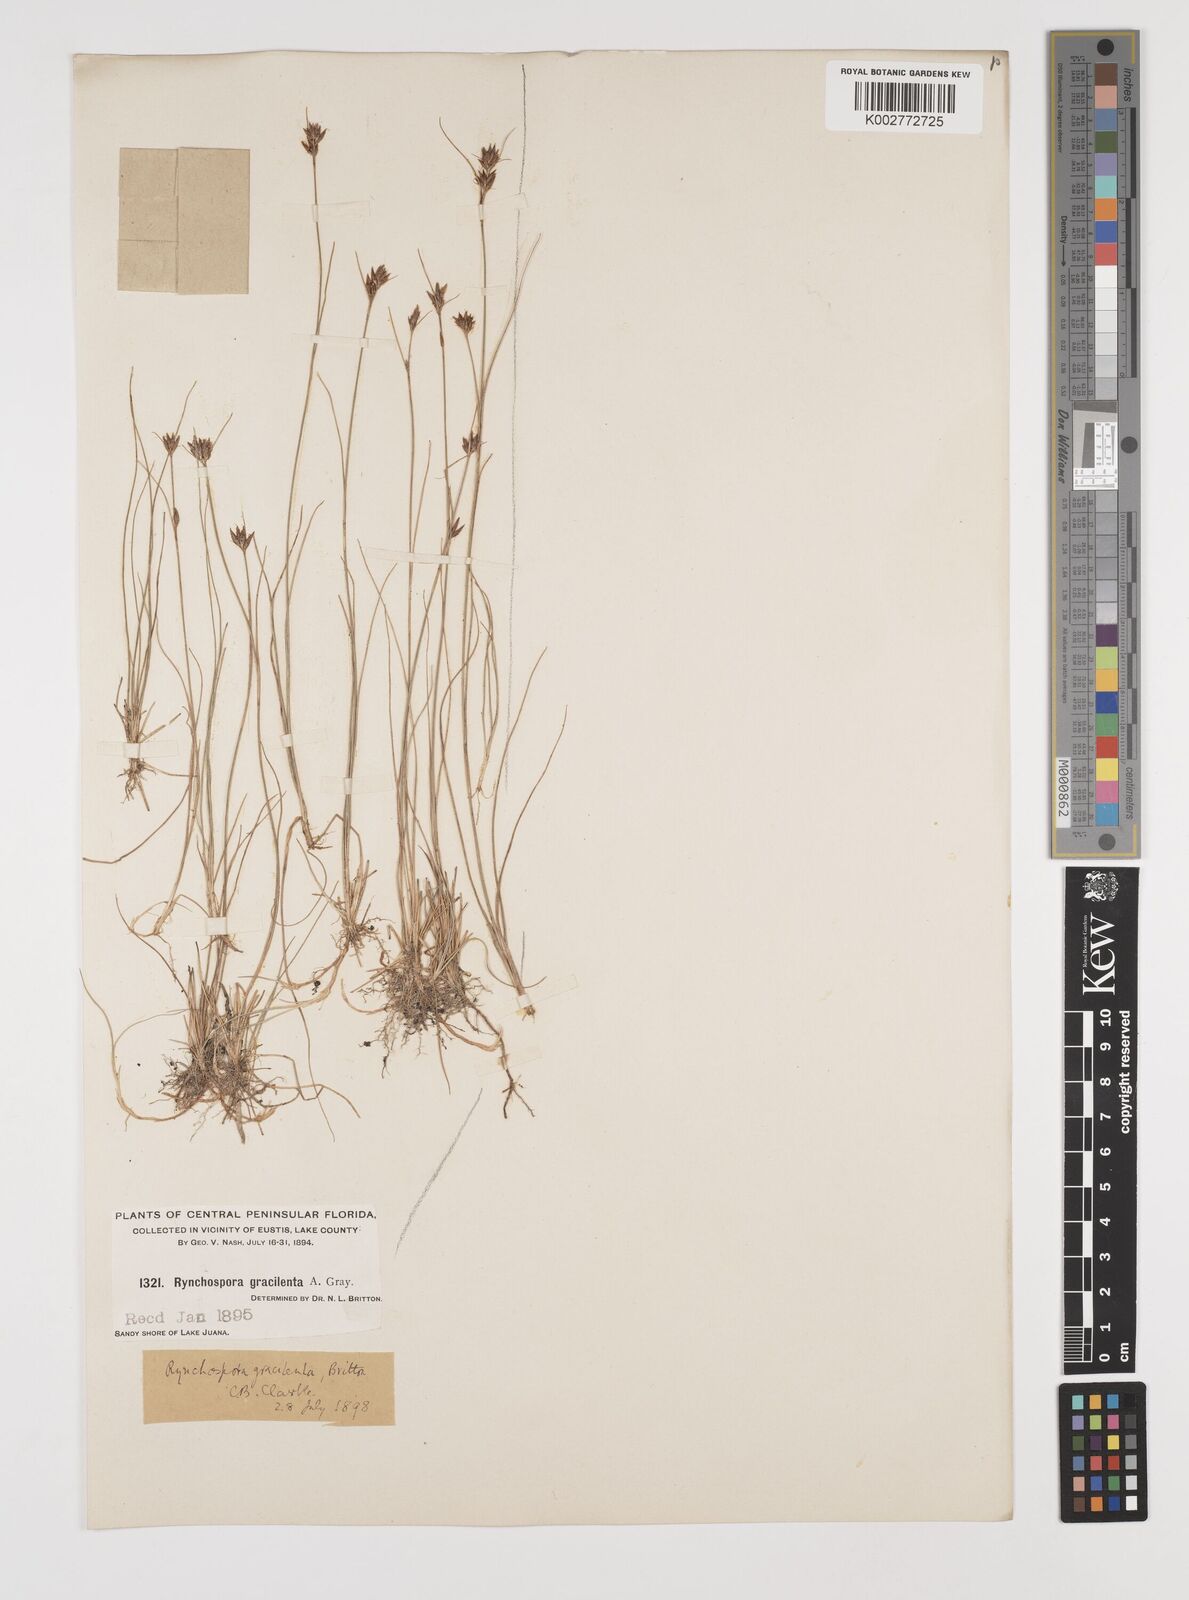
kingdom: Plantae
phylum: Tracheophyta
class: Liliopsida
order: Poales
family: Cyperaceae
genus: Rhynchospora
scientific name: Rhynchospora gracilenta
